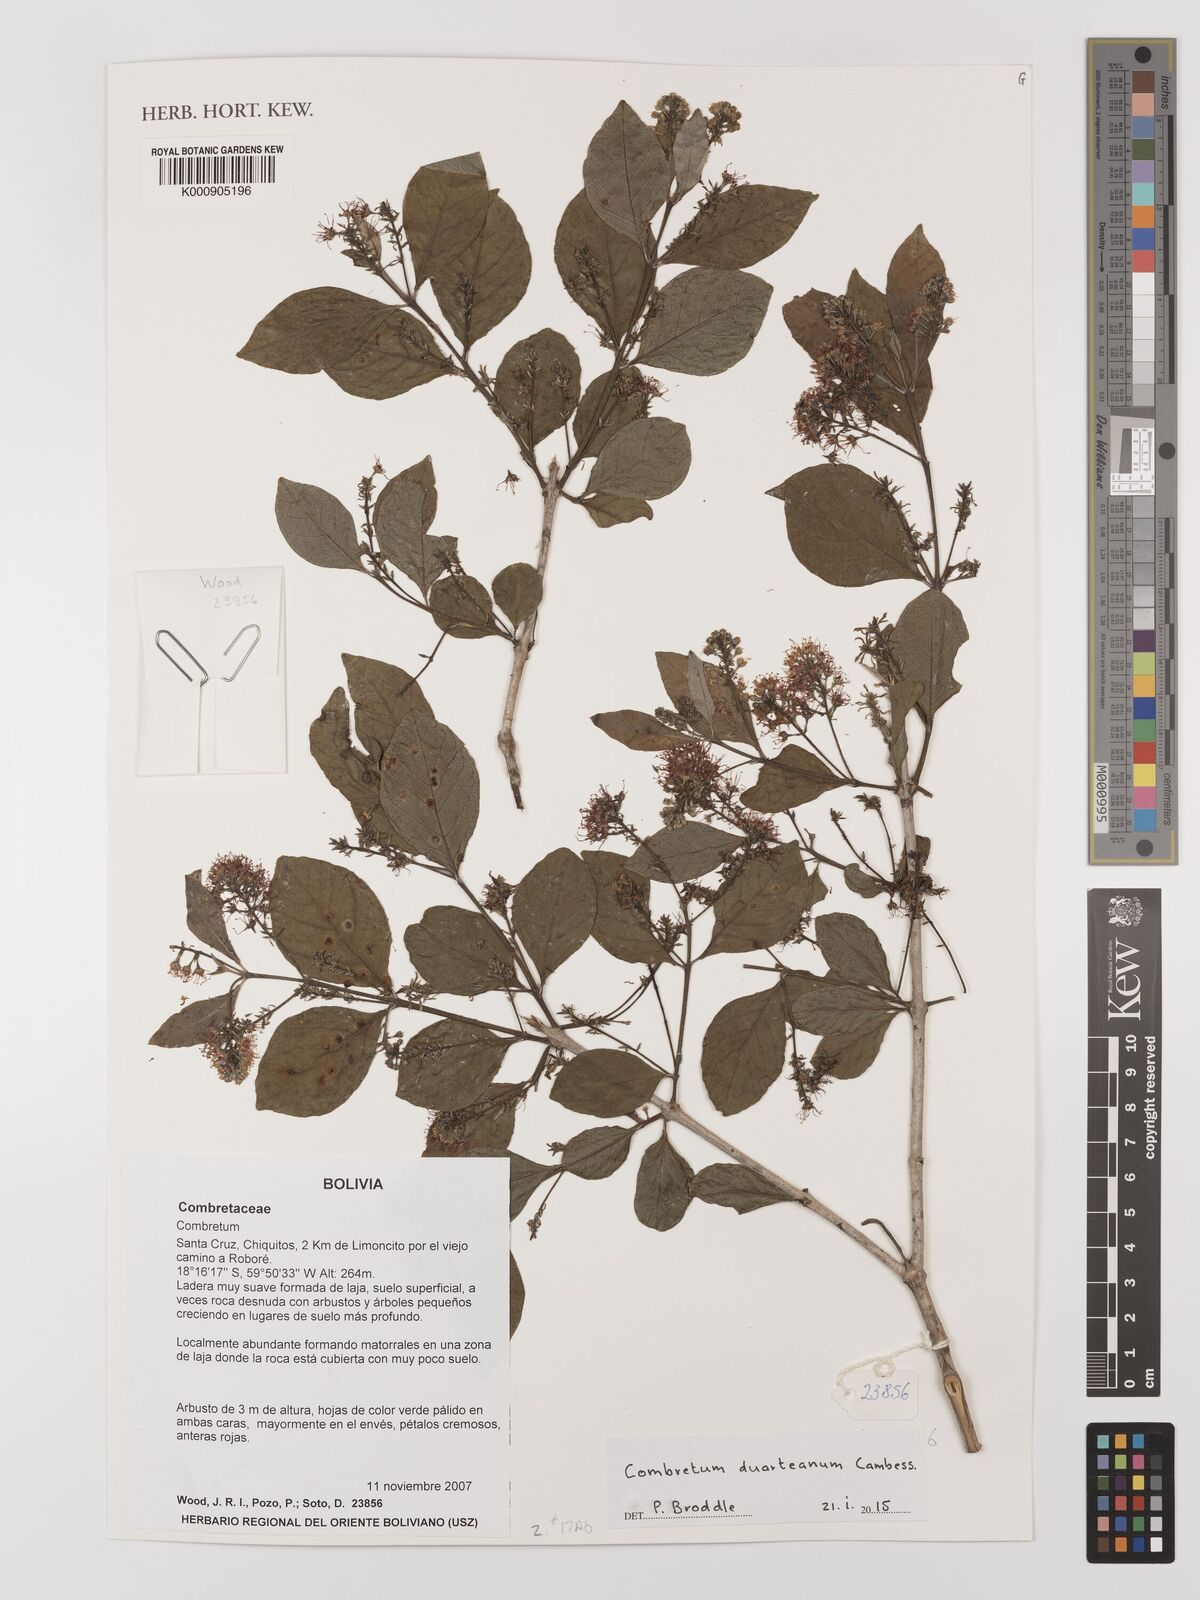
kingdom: Plantae
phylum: Tracheophyta
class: Magnoliopsida
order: Myrtales
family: Combretaceae
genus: Combretum
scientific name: Combretum duarteanum
